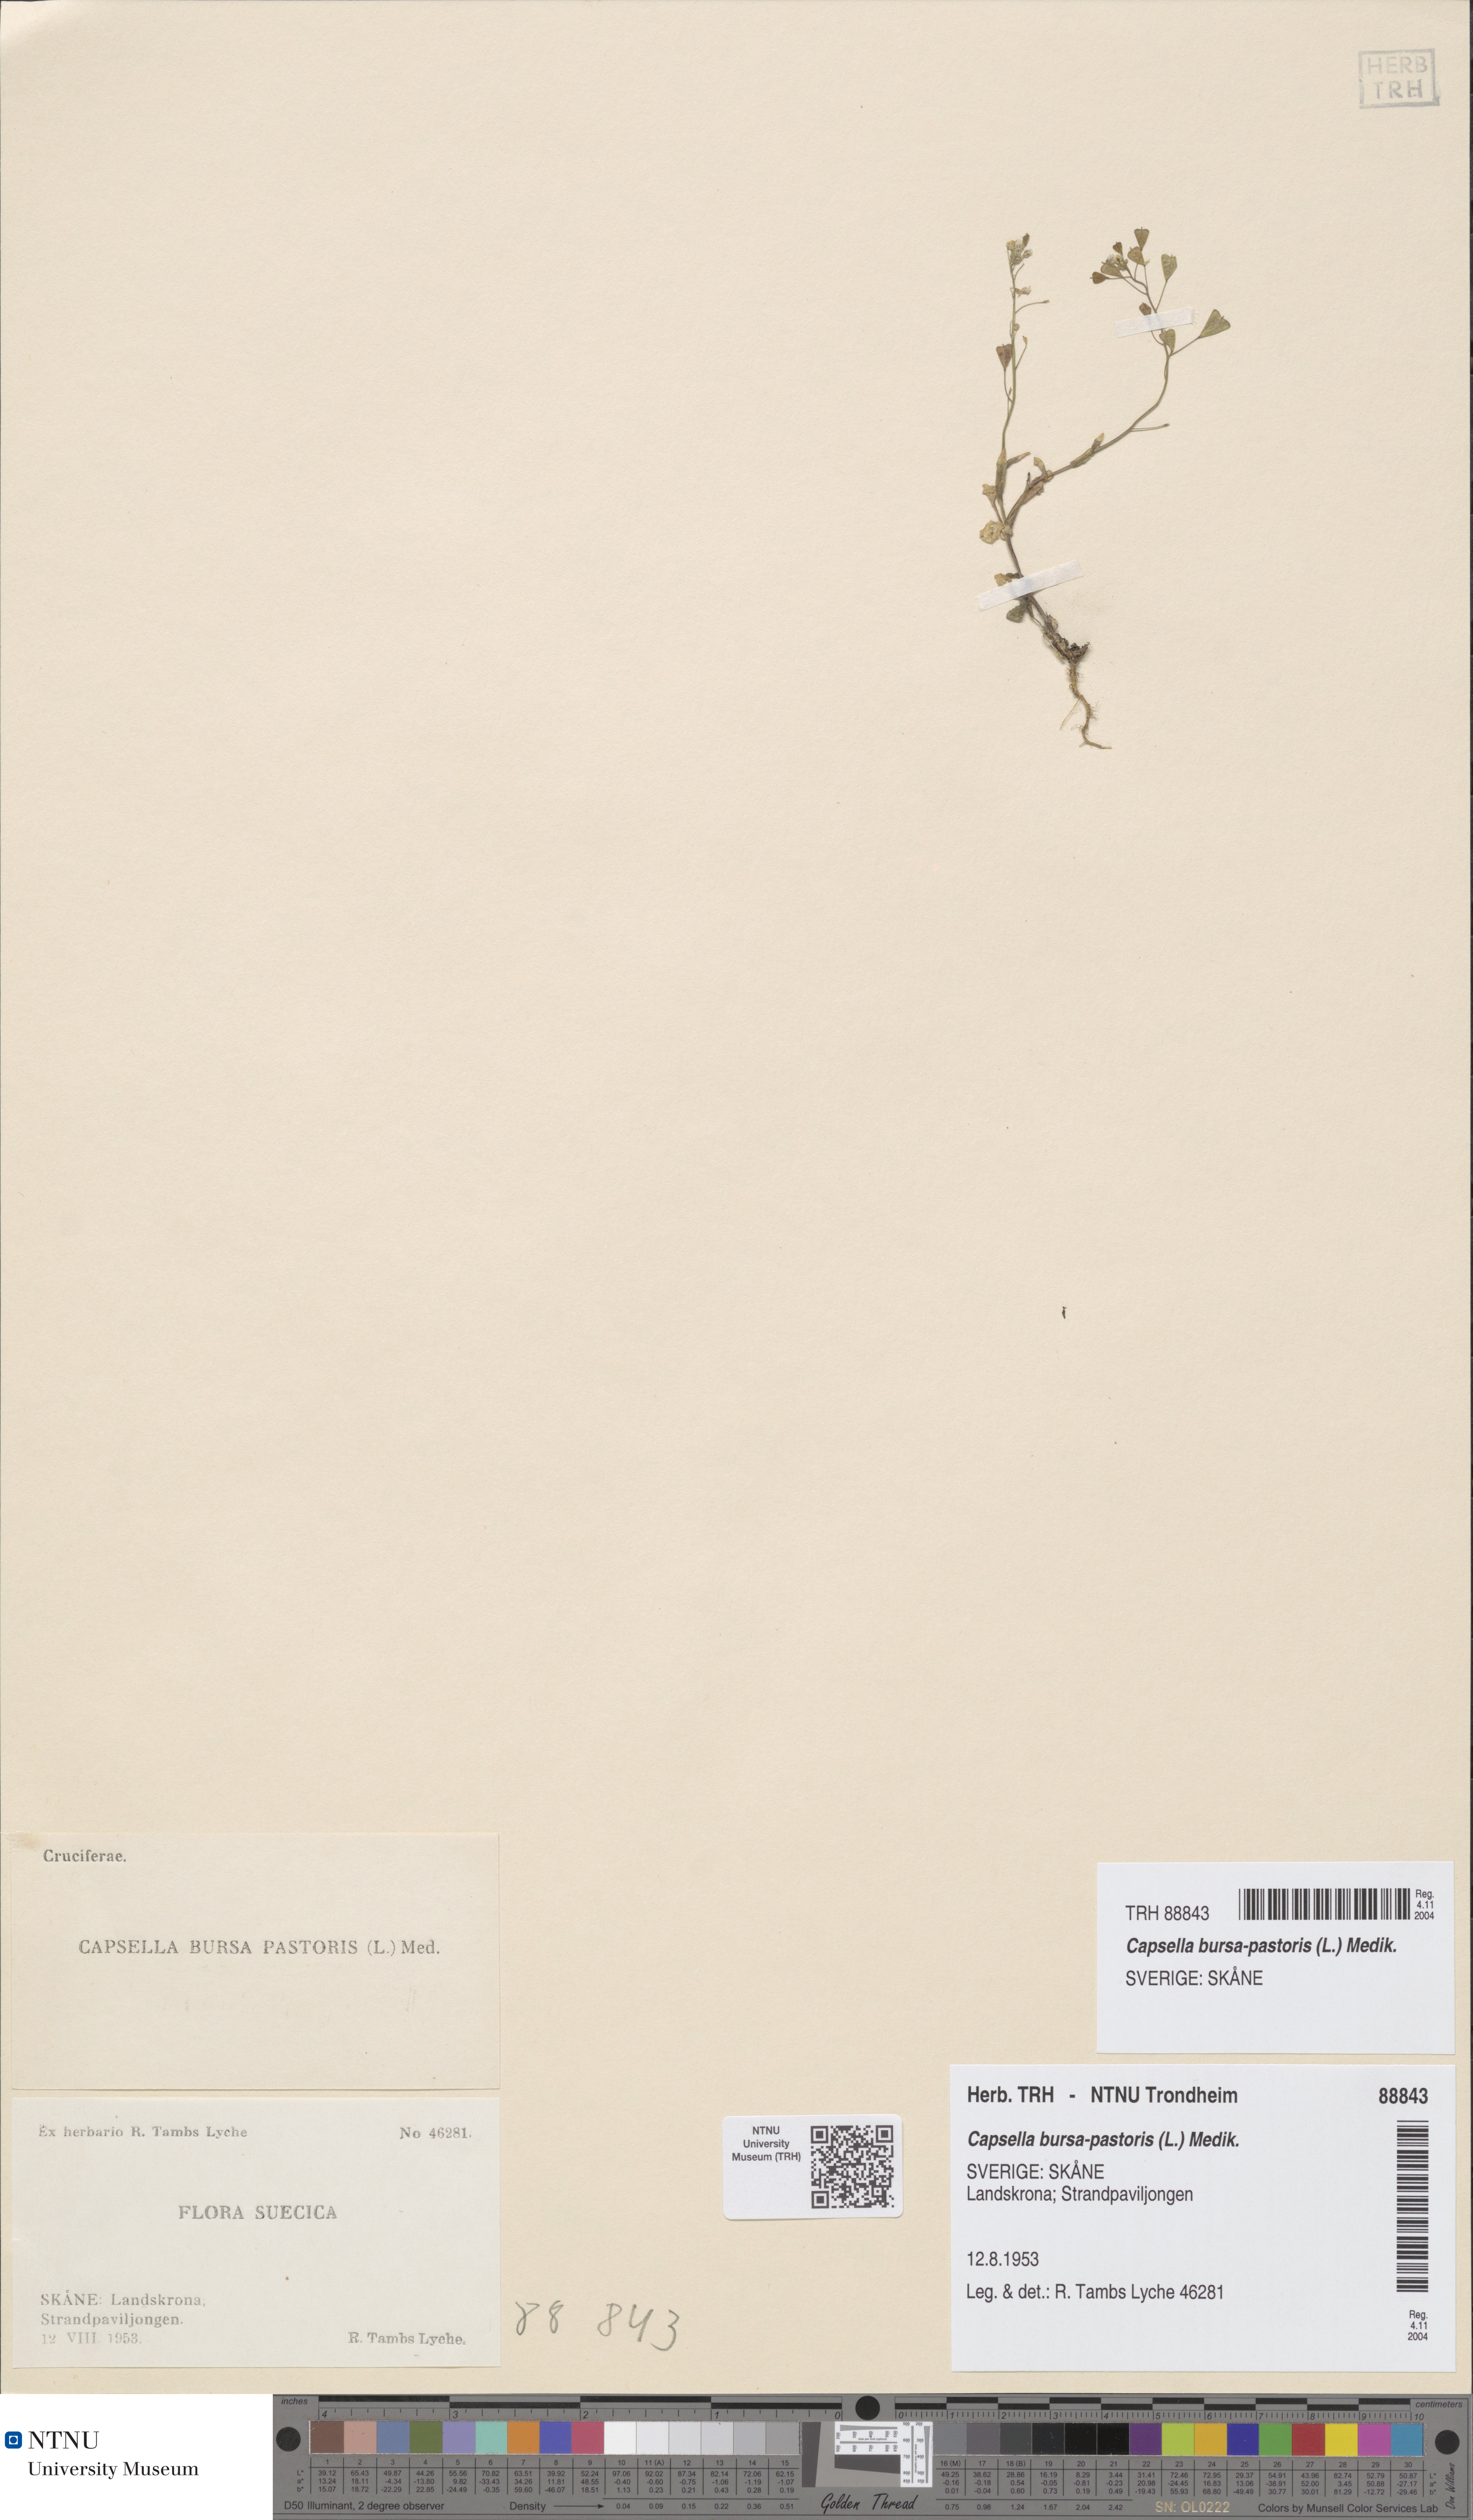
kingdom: Plantae
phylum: Tracheophyta
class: Magnoliopsida
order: Brassicales
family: Brassicaceae
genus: Capsella
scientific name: Capsella bursa-pastoris
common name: Shepherd's purse
